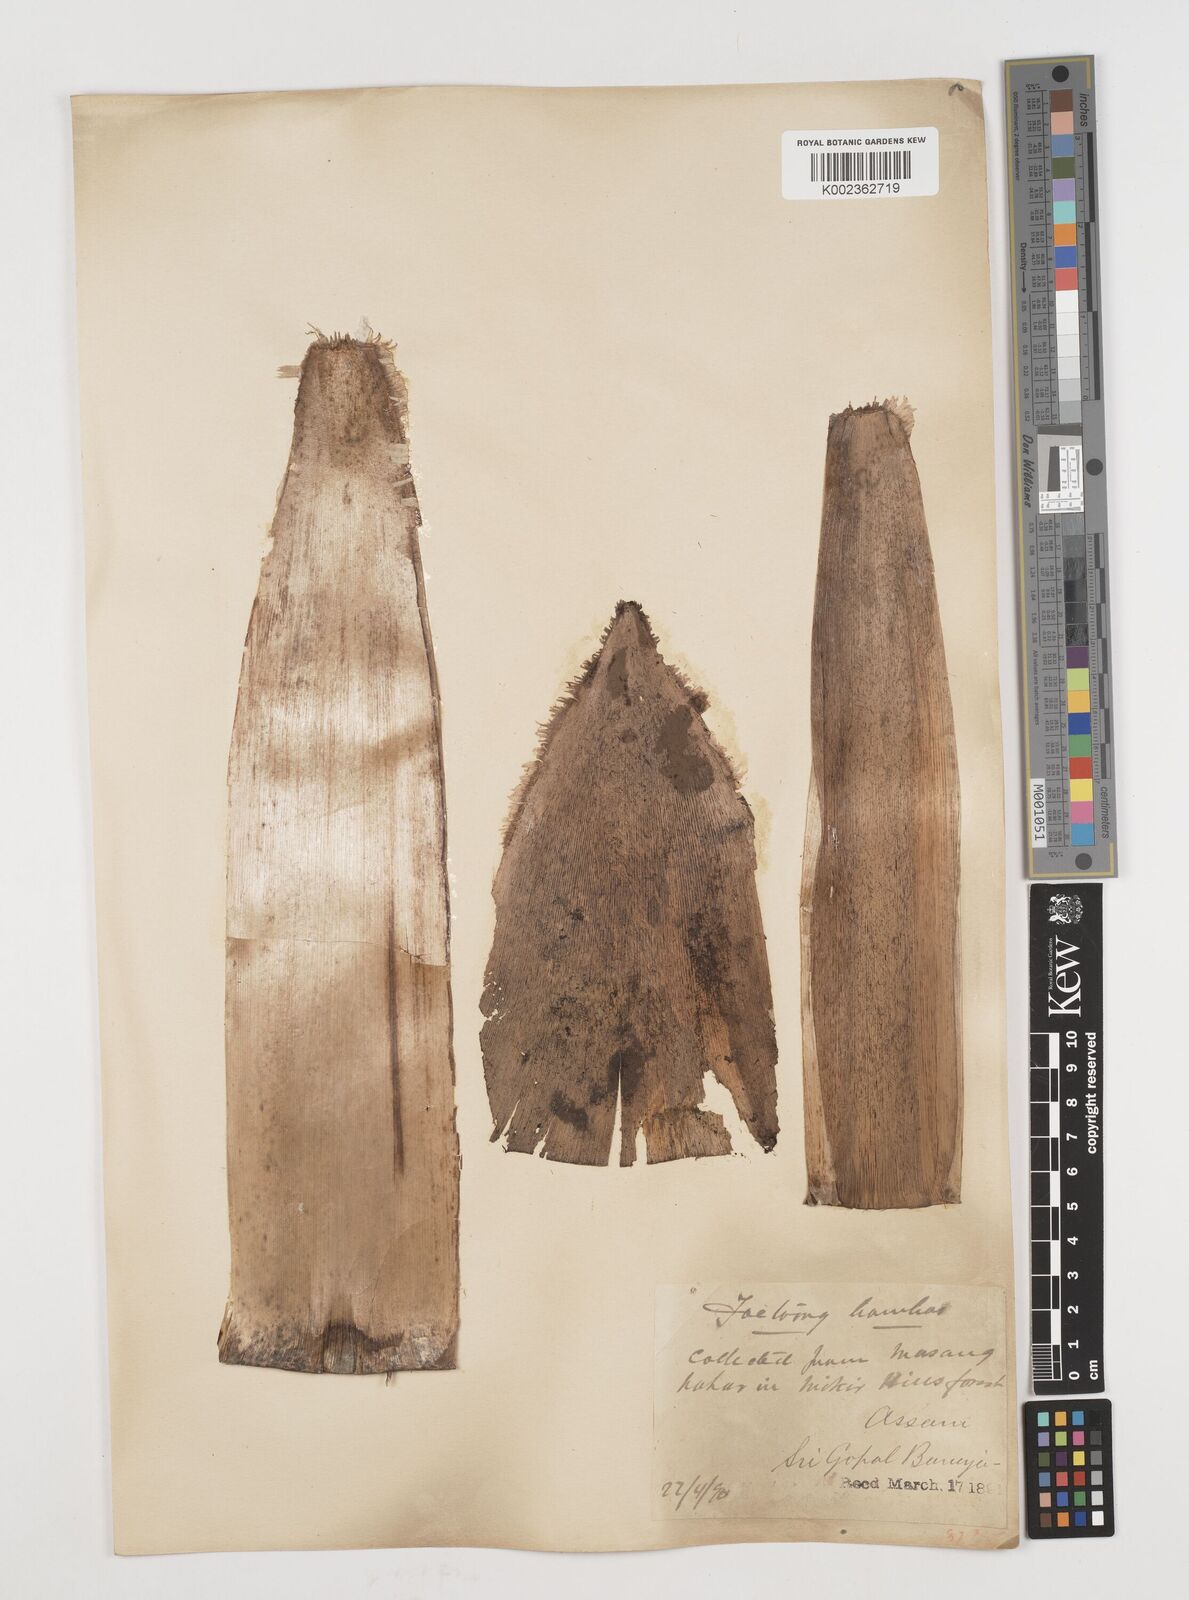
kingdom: Plantae
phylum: Tracheophyta
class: Liliopsida
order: Poales
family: Poaceae
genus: Ampelocalamus
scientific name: Ampelocalamus patellaris
